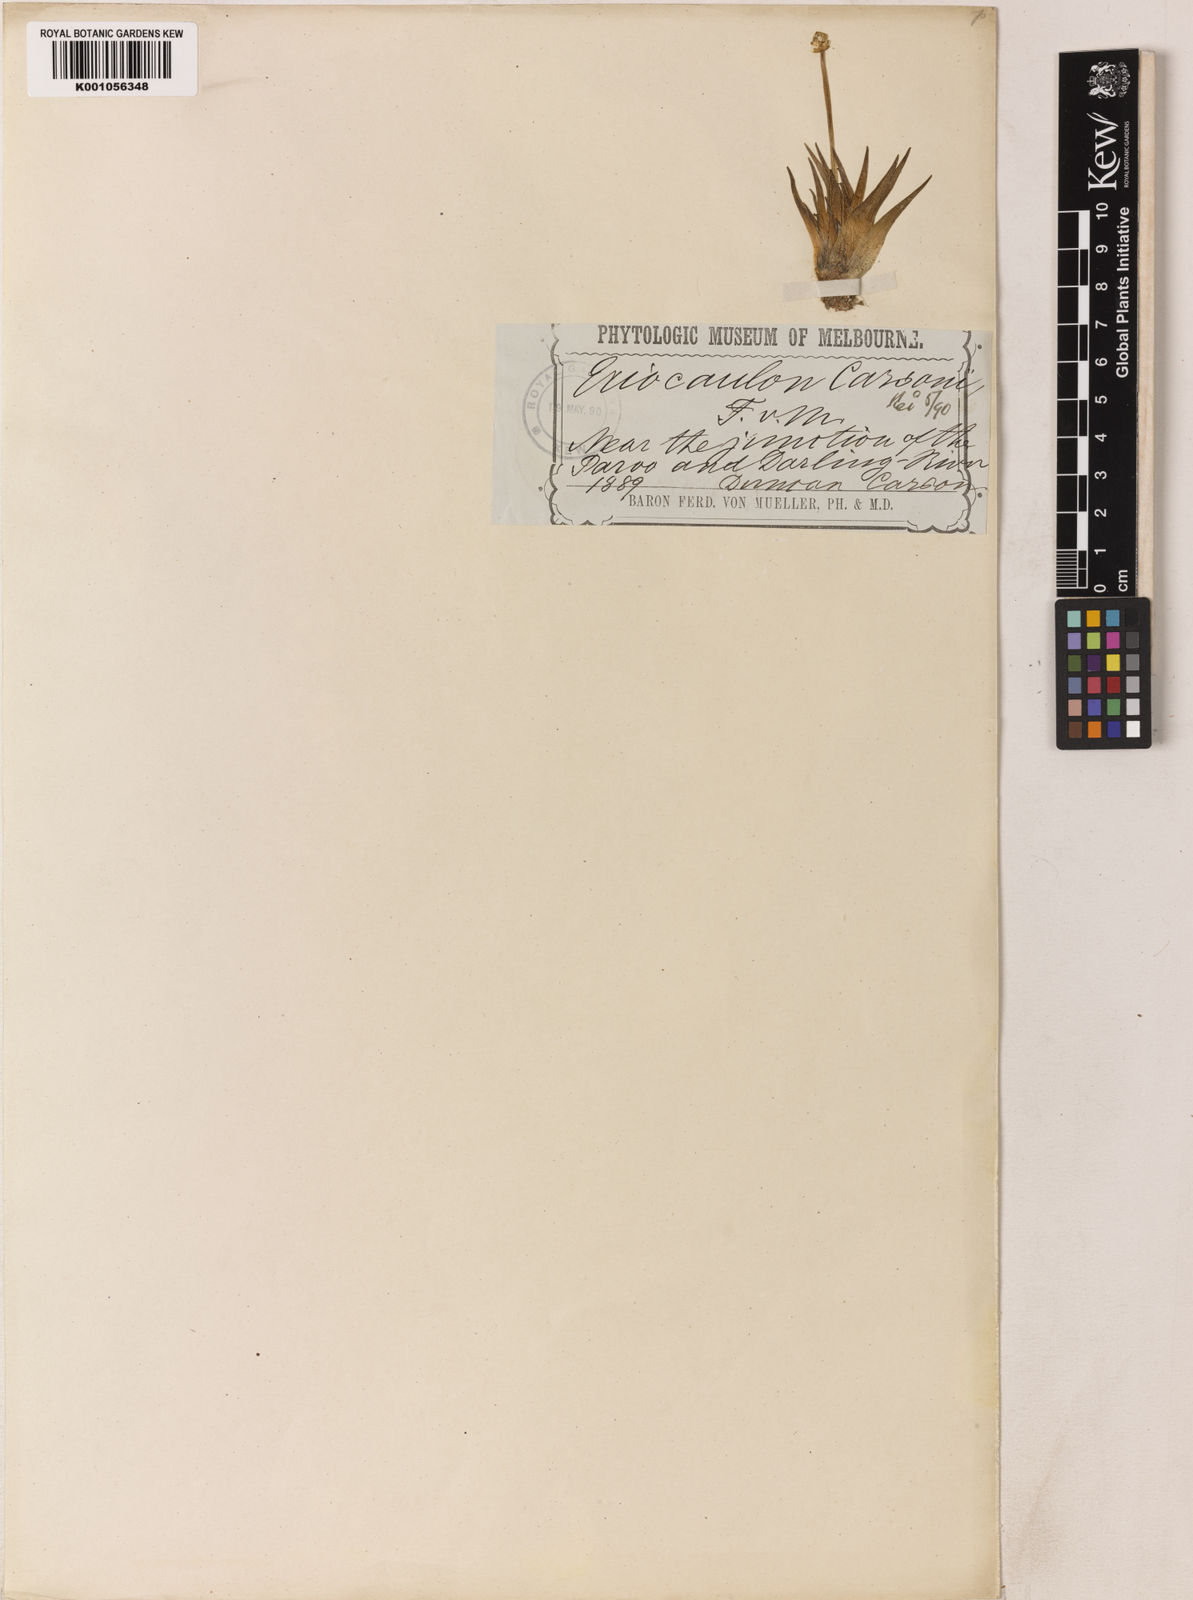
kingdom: Plantae
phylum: Tracheophyta
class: Liliopsida
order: Poales
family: Eriocaulaceae
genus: Eriocaulon
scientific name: Eriocaulon carsonii
